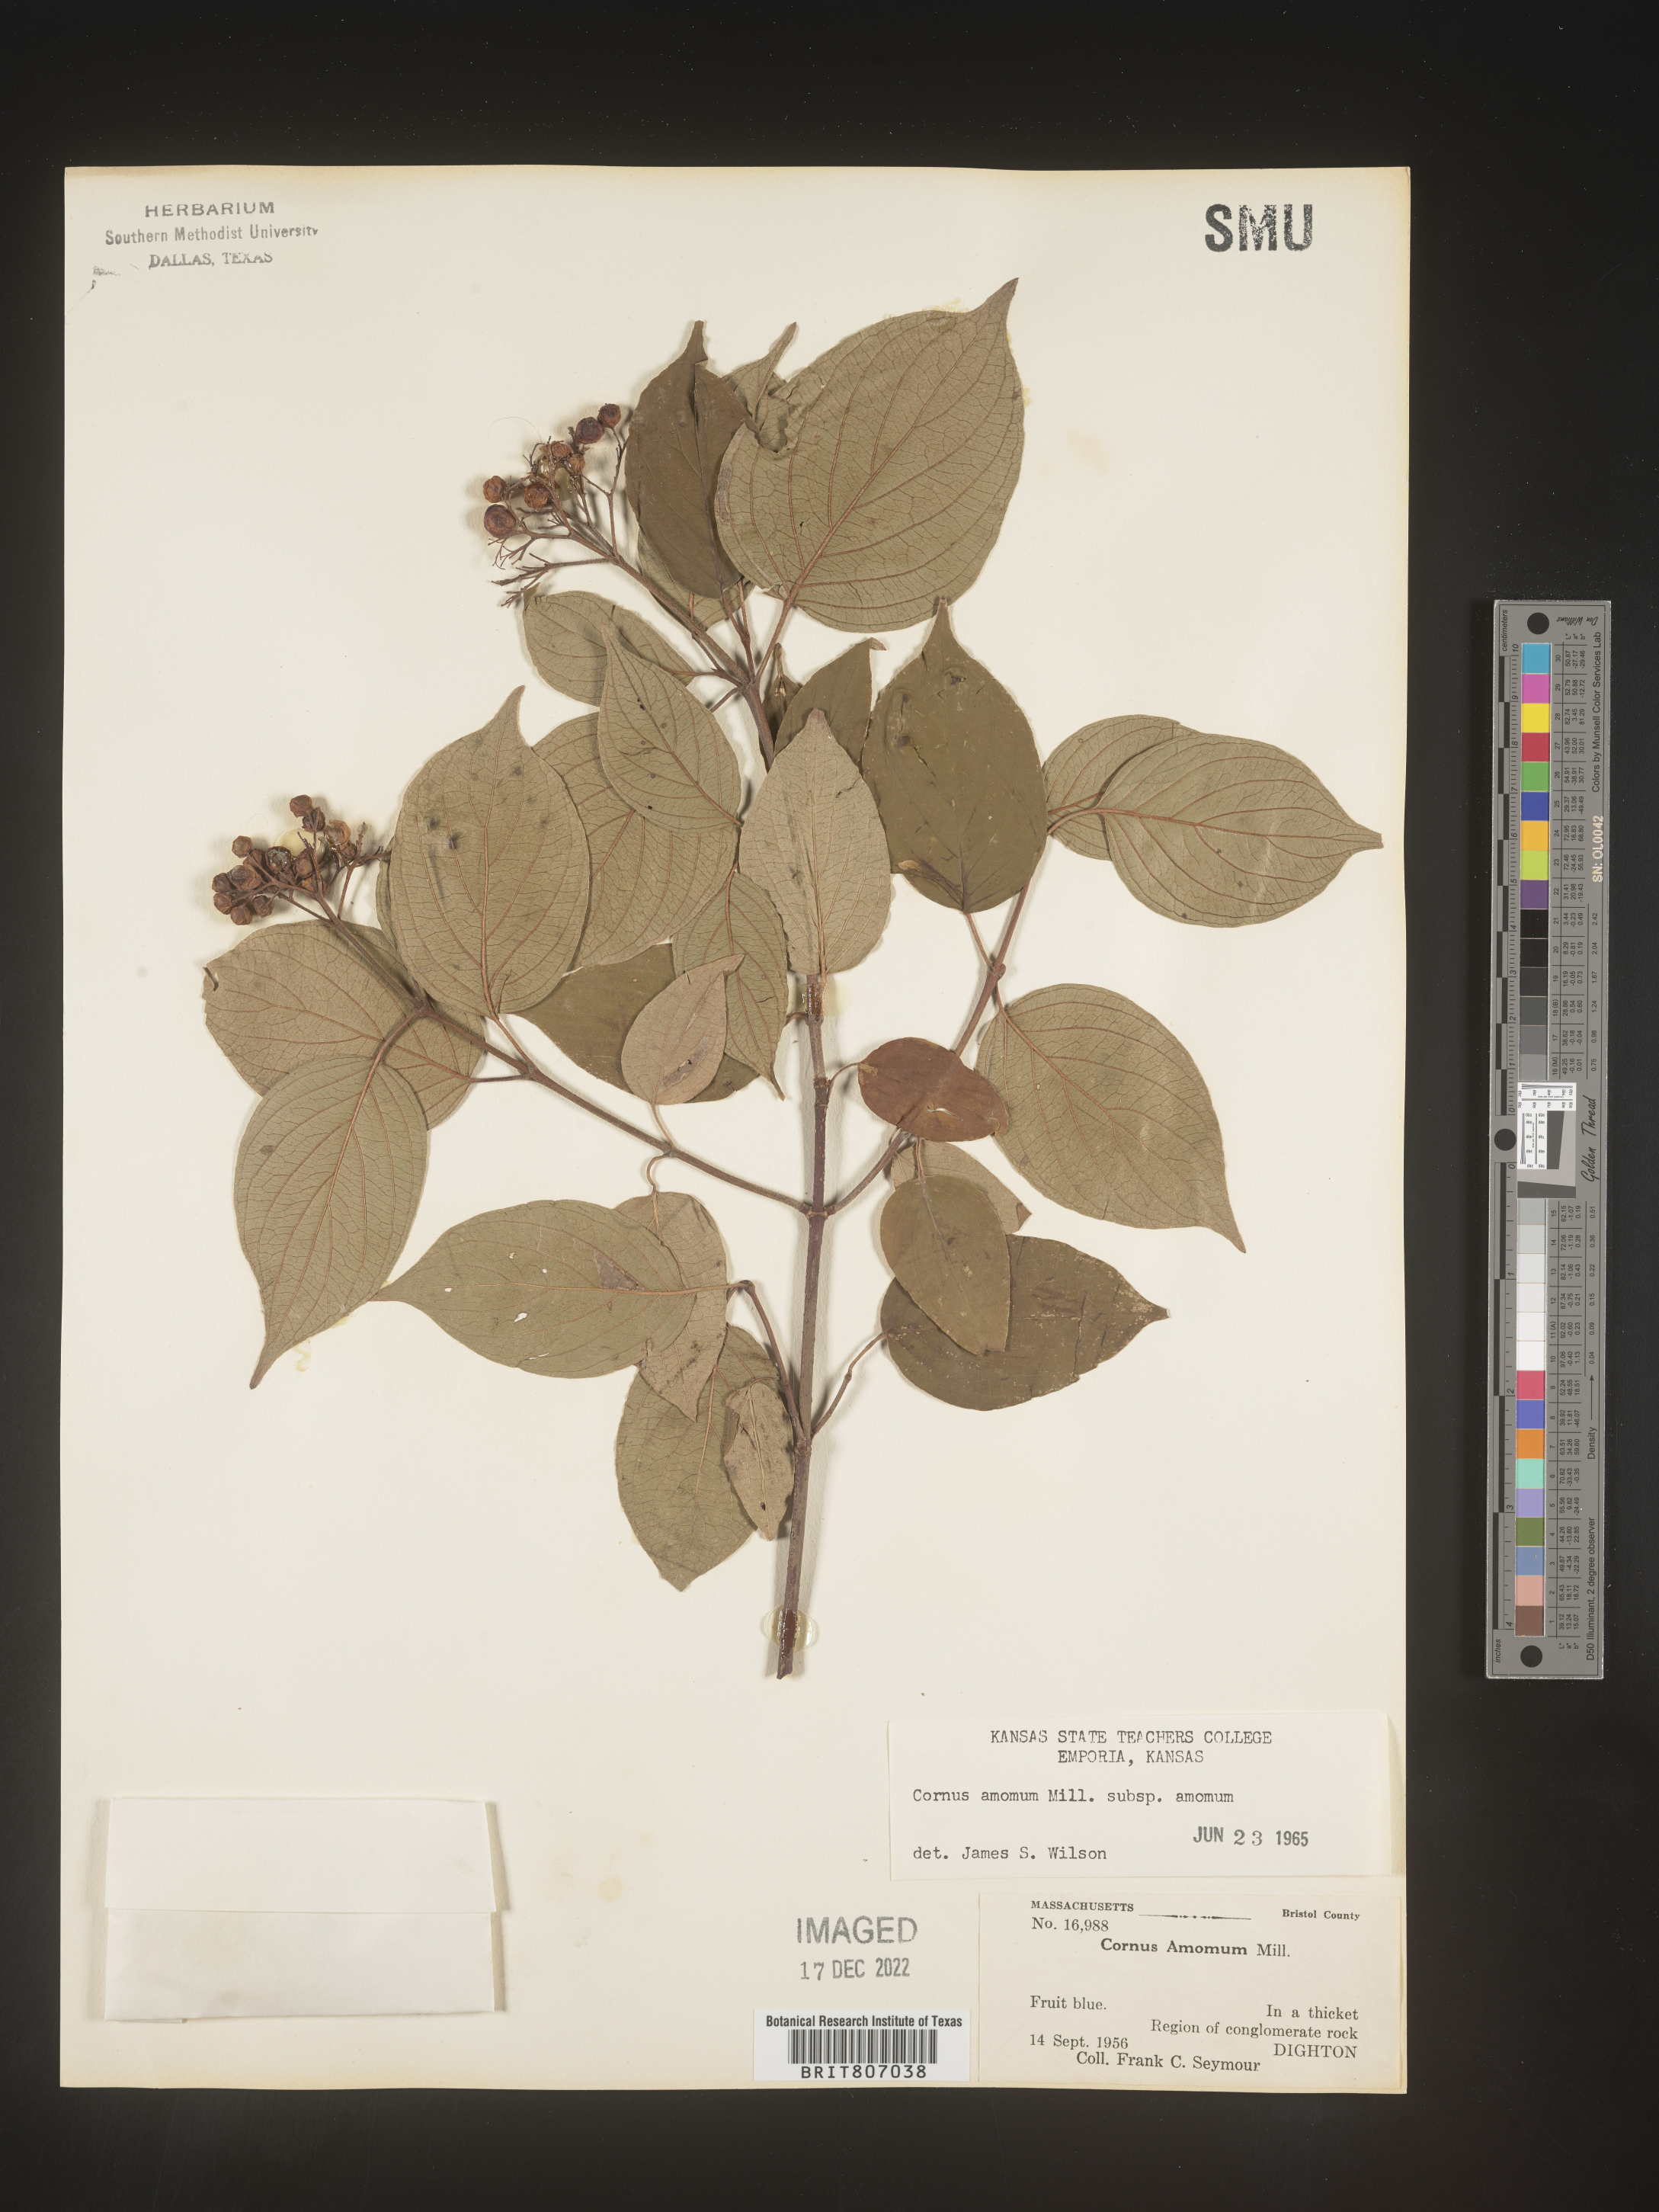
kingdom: Plantae
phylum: Tracheophyta
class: Magnoliopsida
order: Cornales
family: Cornaceae
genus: Cornus
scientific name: Cornus amomum
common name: Silky dogwood
